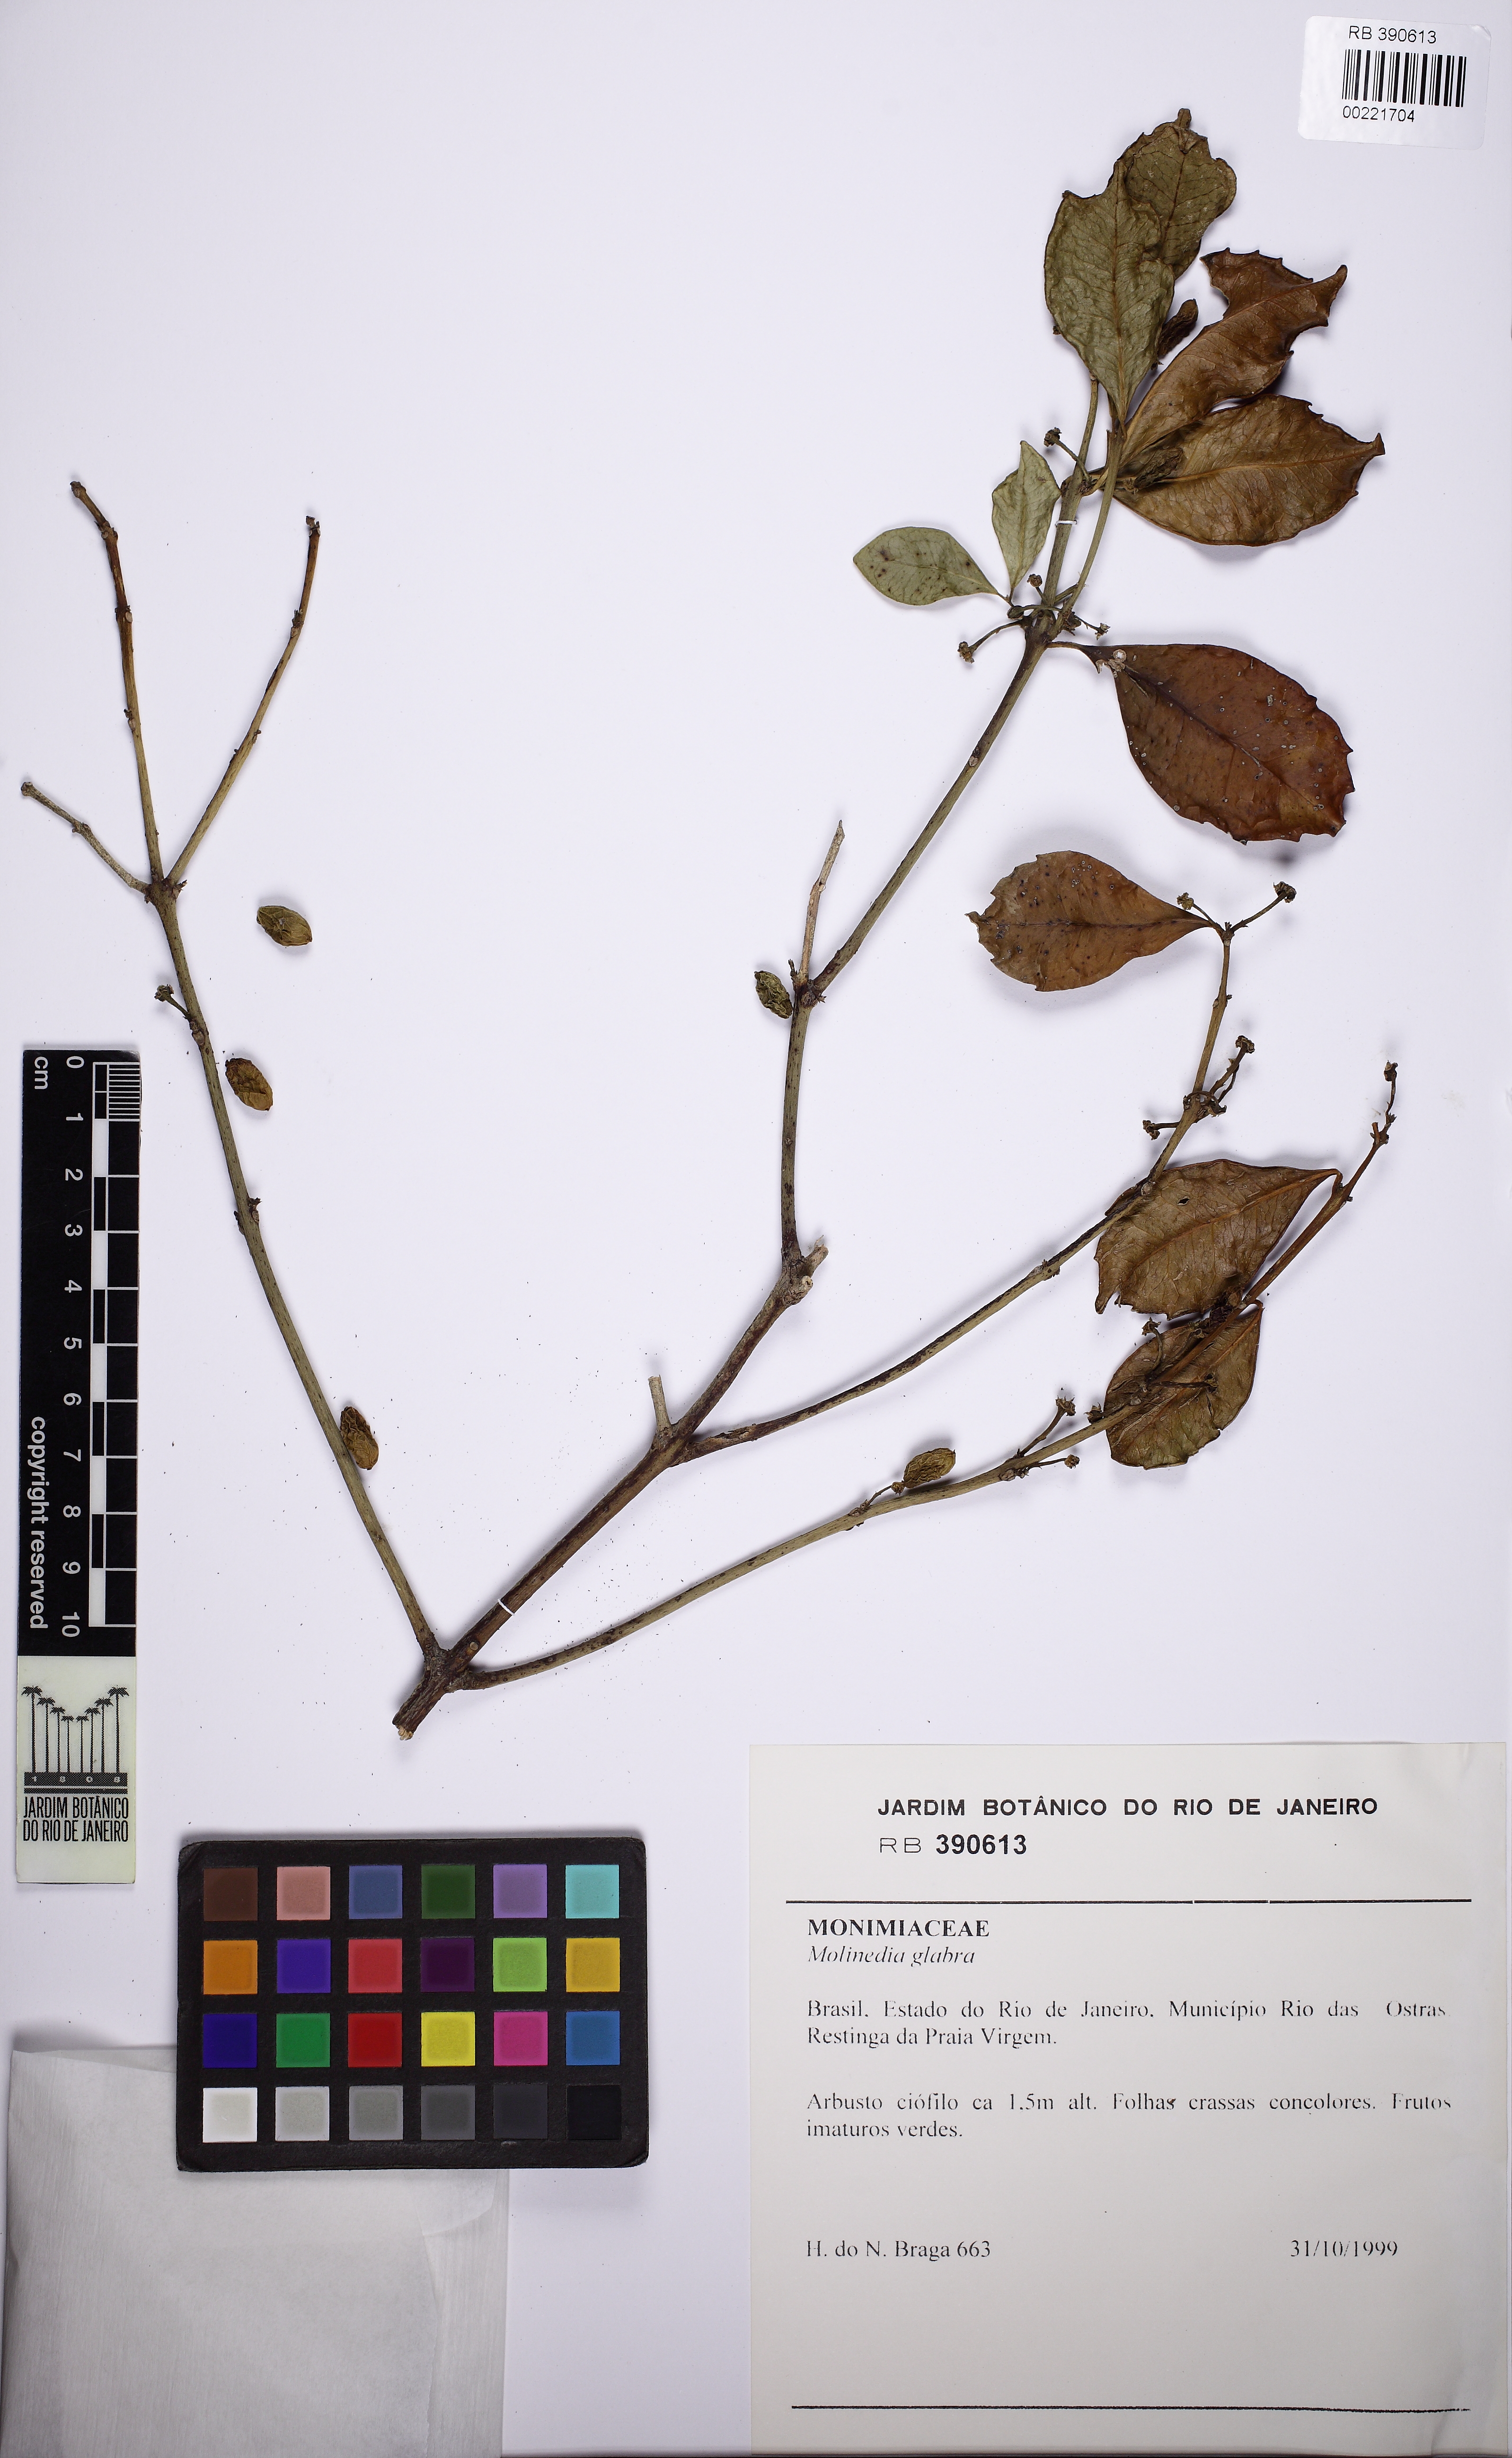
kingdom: Plantae
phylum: Tracheophyta
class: Magnoliopsida
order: Laurales
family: Monimiaceae
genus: Mollinedia
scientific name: Mollinedia glabra
